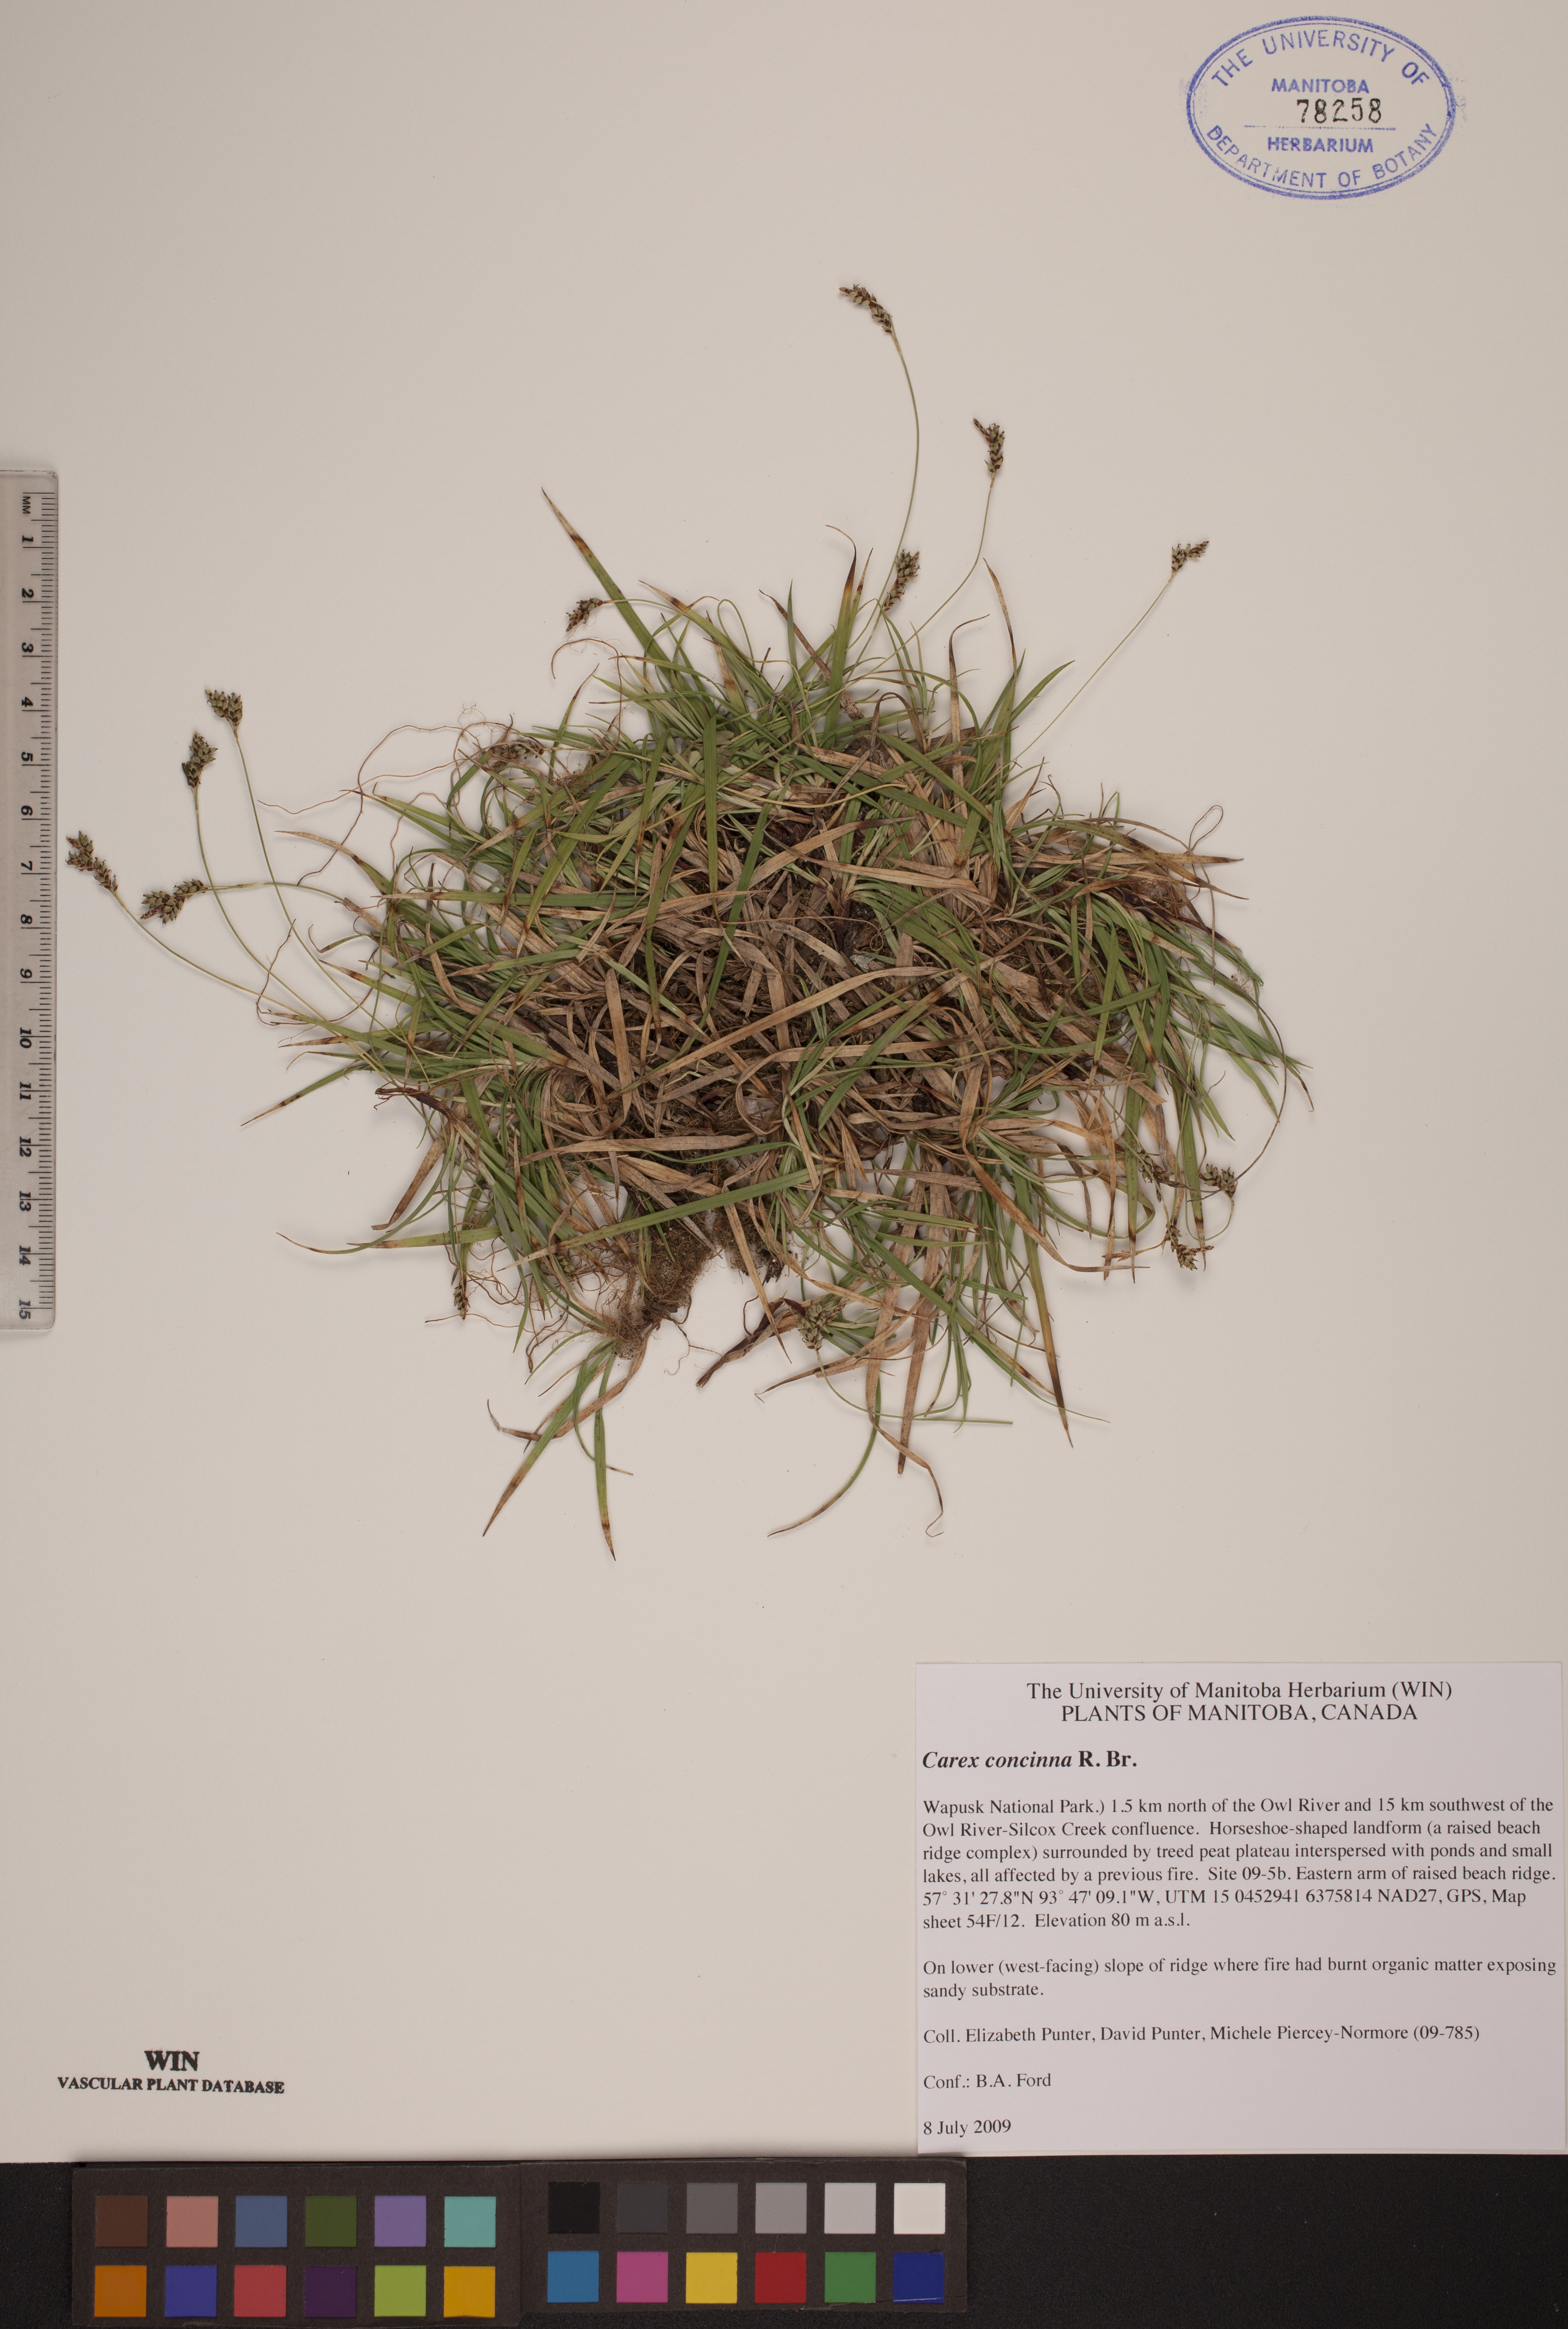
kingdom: Plantae
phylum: Tracheophyta
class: Liliopsida
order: Poales
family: Cyperaceae
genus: Carex
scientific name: Carex concinna
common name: Beautiful sedge
